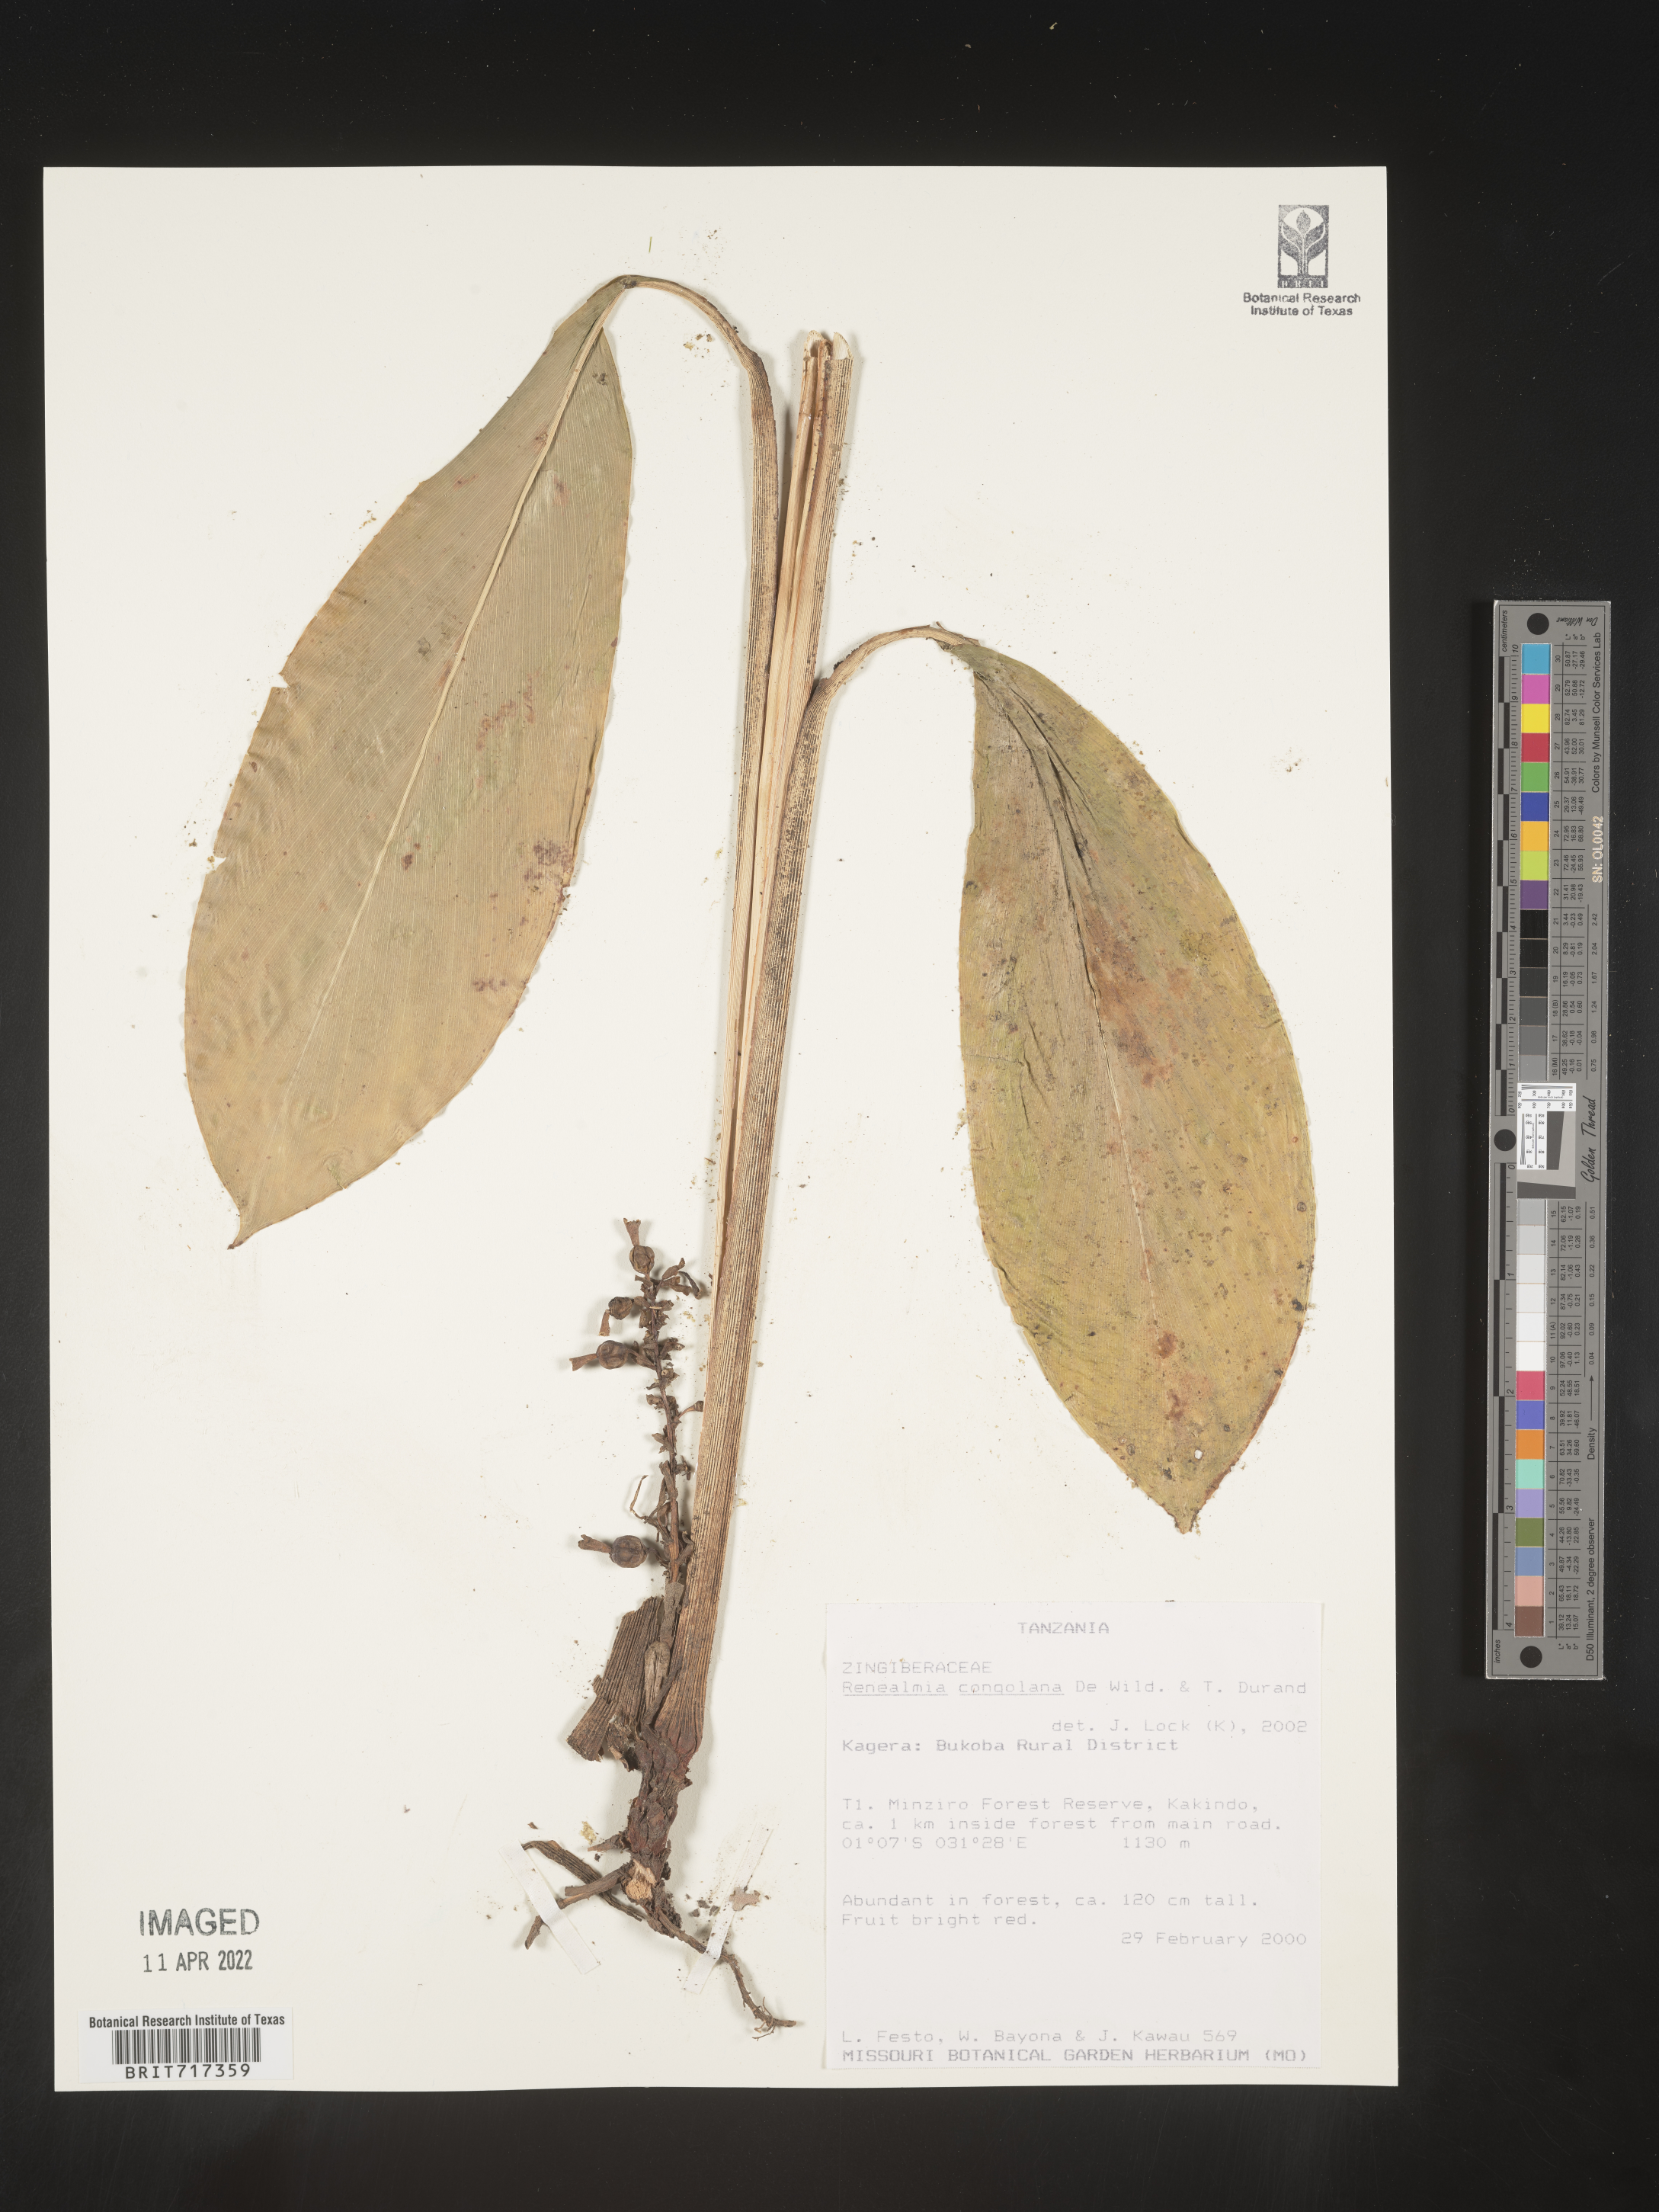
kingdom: Plantae
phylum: Tracheophyta
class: Liliopsida
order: Zingiberales
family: Zingiberaceae
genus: Renealmia
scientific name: Renealmia
